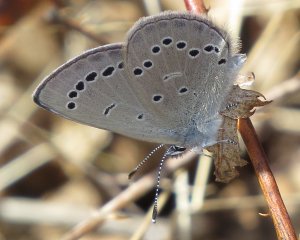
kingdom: Animalia
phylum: Arthropoda
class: Insecta
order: Lepidoptera
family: Lycaenidae
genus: Glaucopsyche
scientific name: Glaucopsyche lygdamus
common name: Silvery Blue
